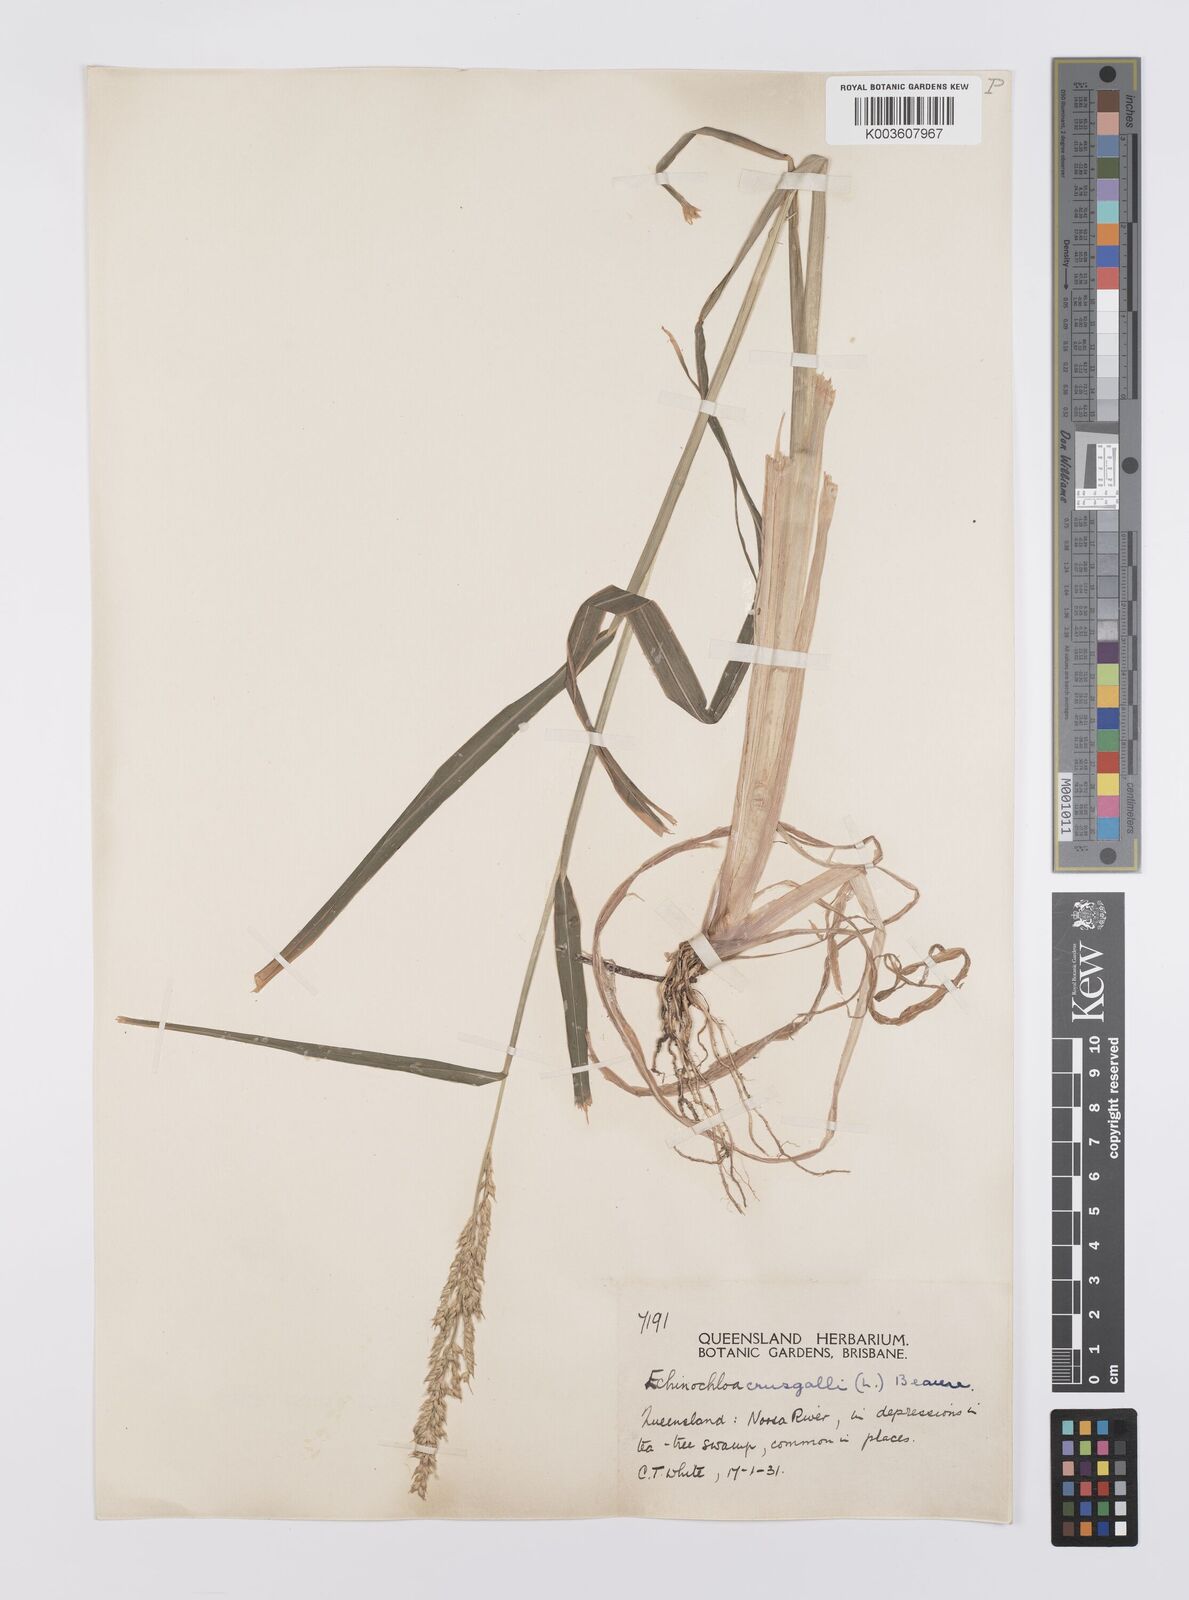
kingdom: Plantae
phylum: Tracheophyta
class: Liliopsida
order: Poales
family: Poaceae
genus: Echinochloa
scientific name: Echinochloa crus-galli
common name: Cockspur
